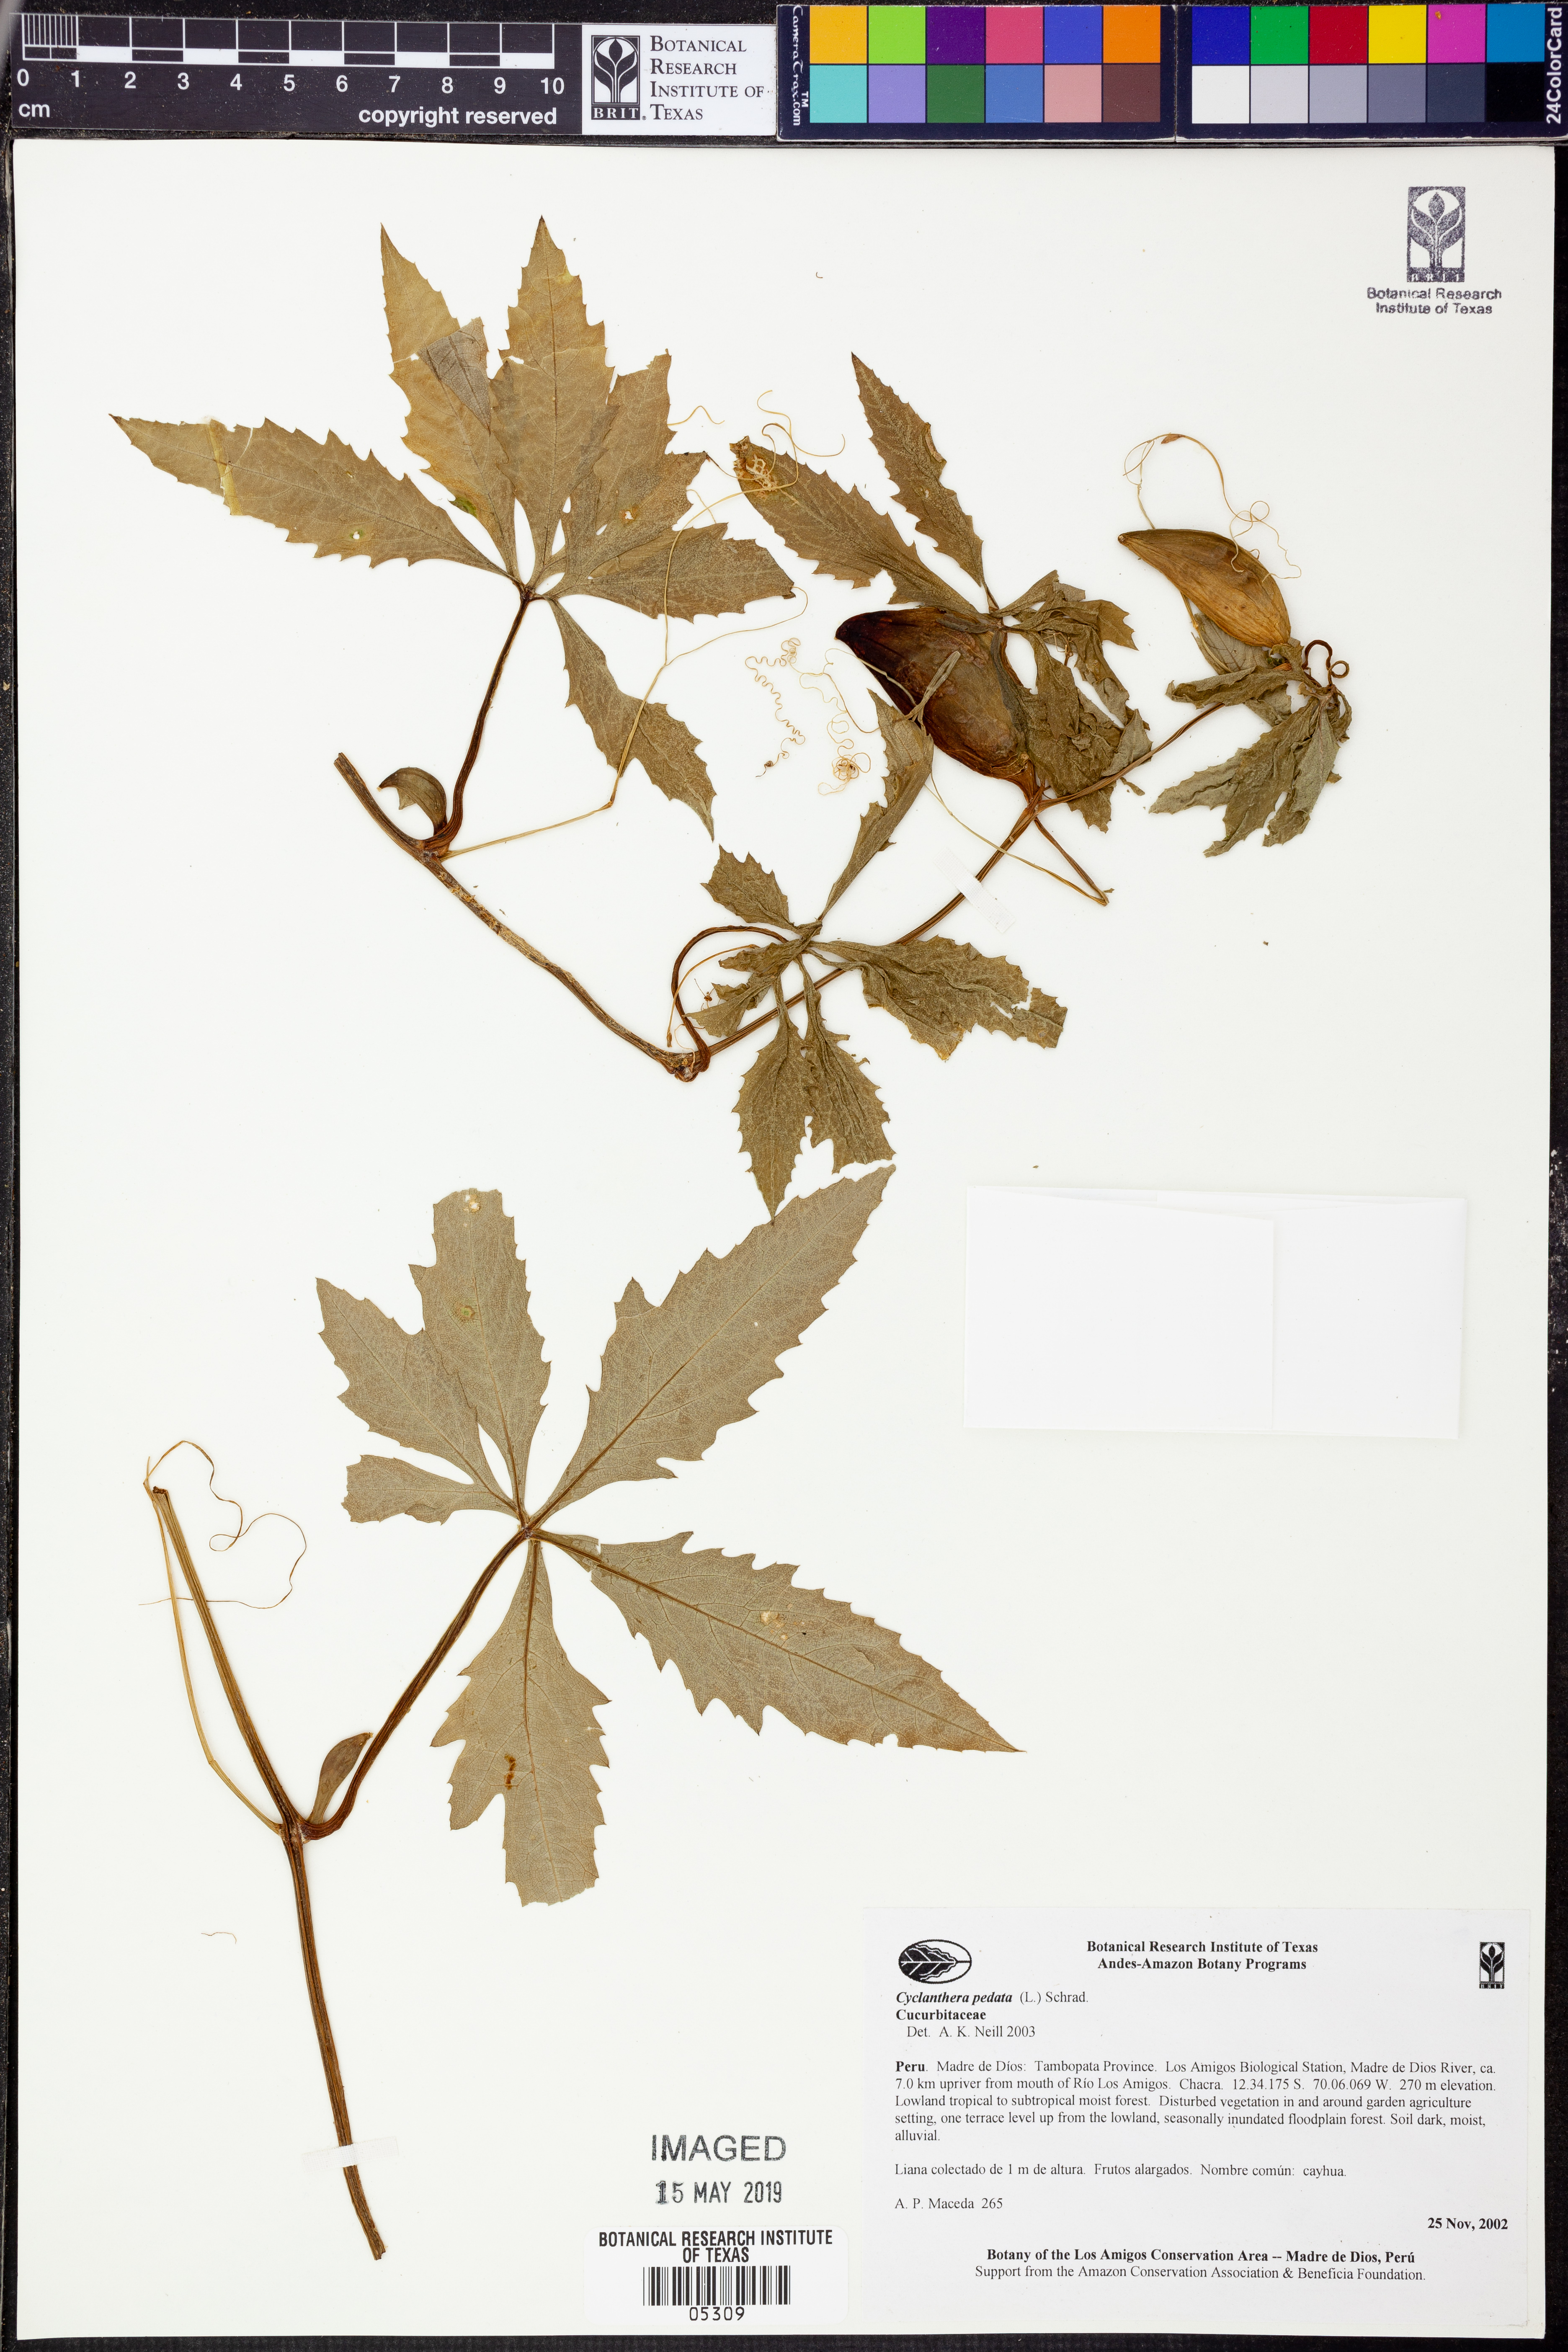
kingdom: Plantae
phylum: Tracheophyta
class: Magnoliopsida
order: Cucurbitales
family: Cucurbitaceae
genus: Cayaponia
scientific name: Cayaponia
